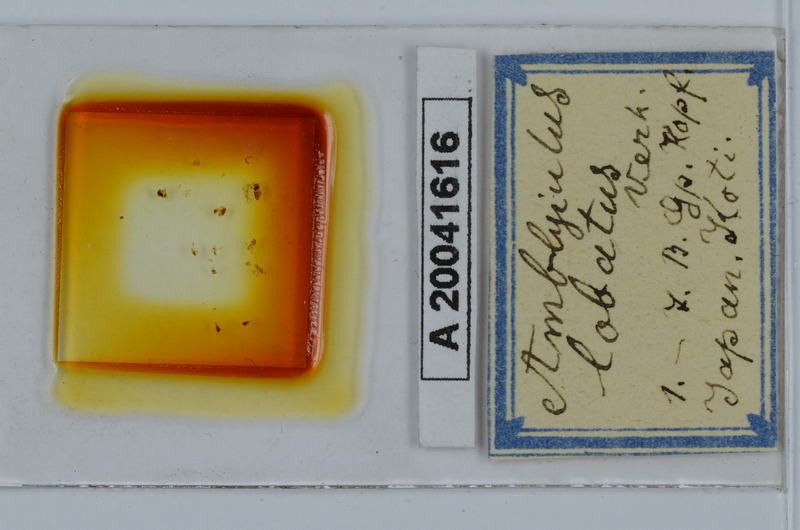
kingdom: Animalia
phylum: Arthropoda
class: Diplopoda
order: Julida
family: Julidae
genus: Japanioiulus
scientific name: Japanioiulus lobatus
